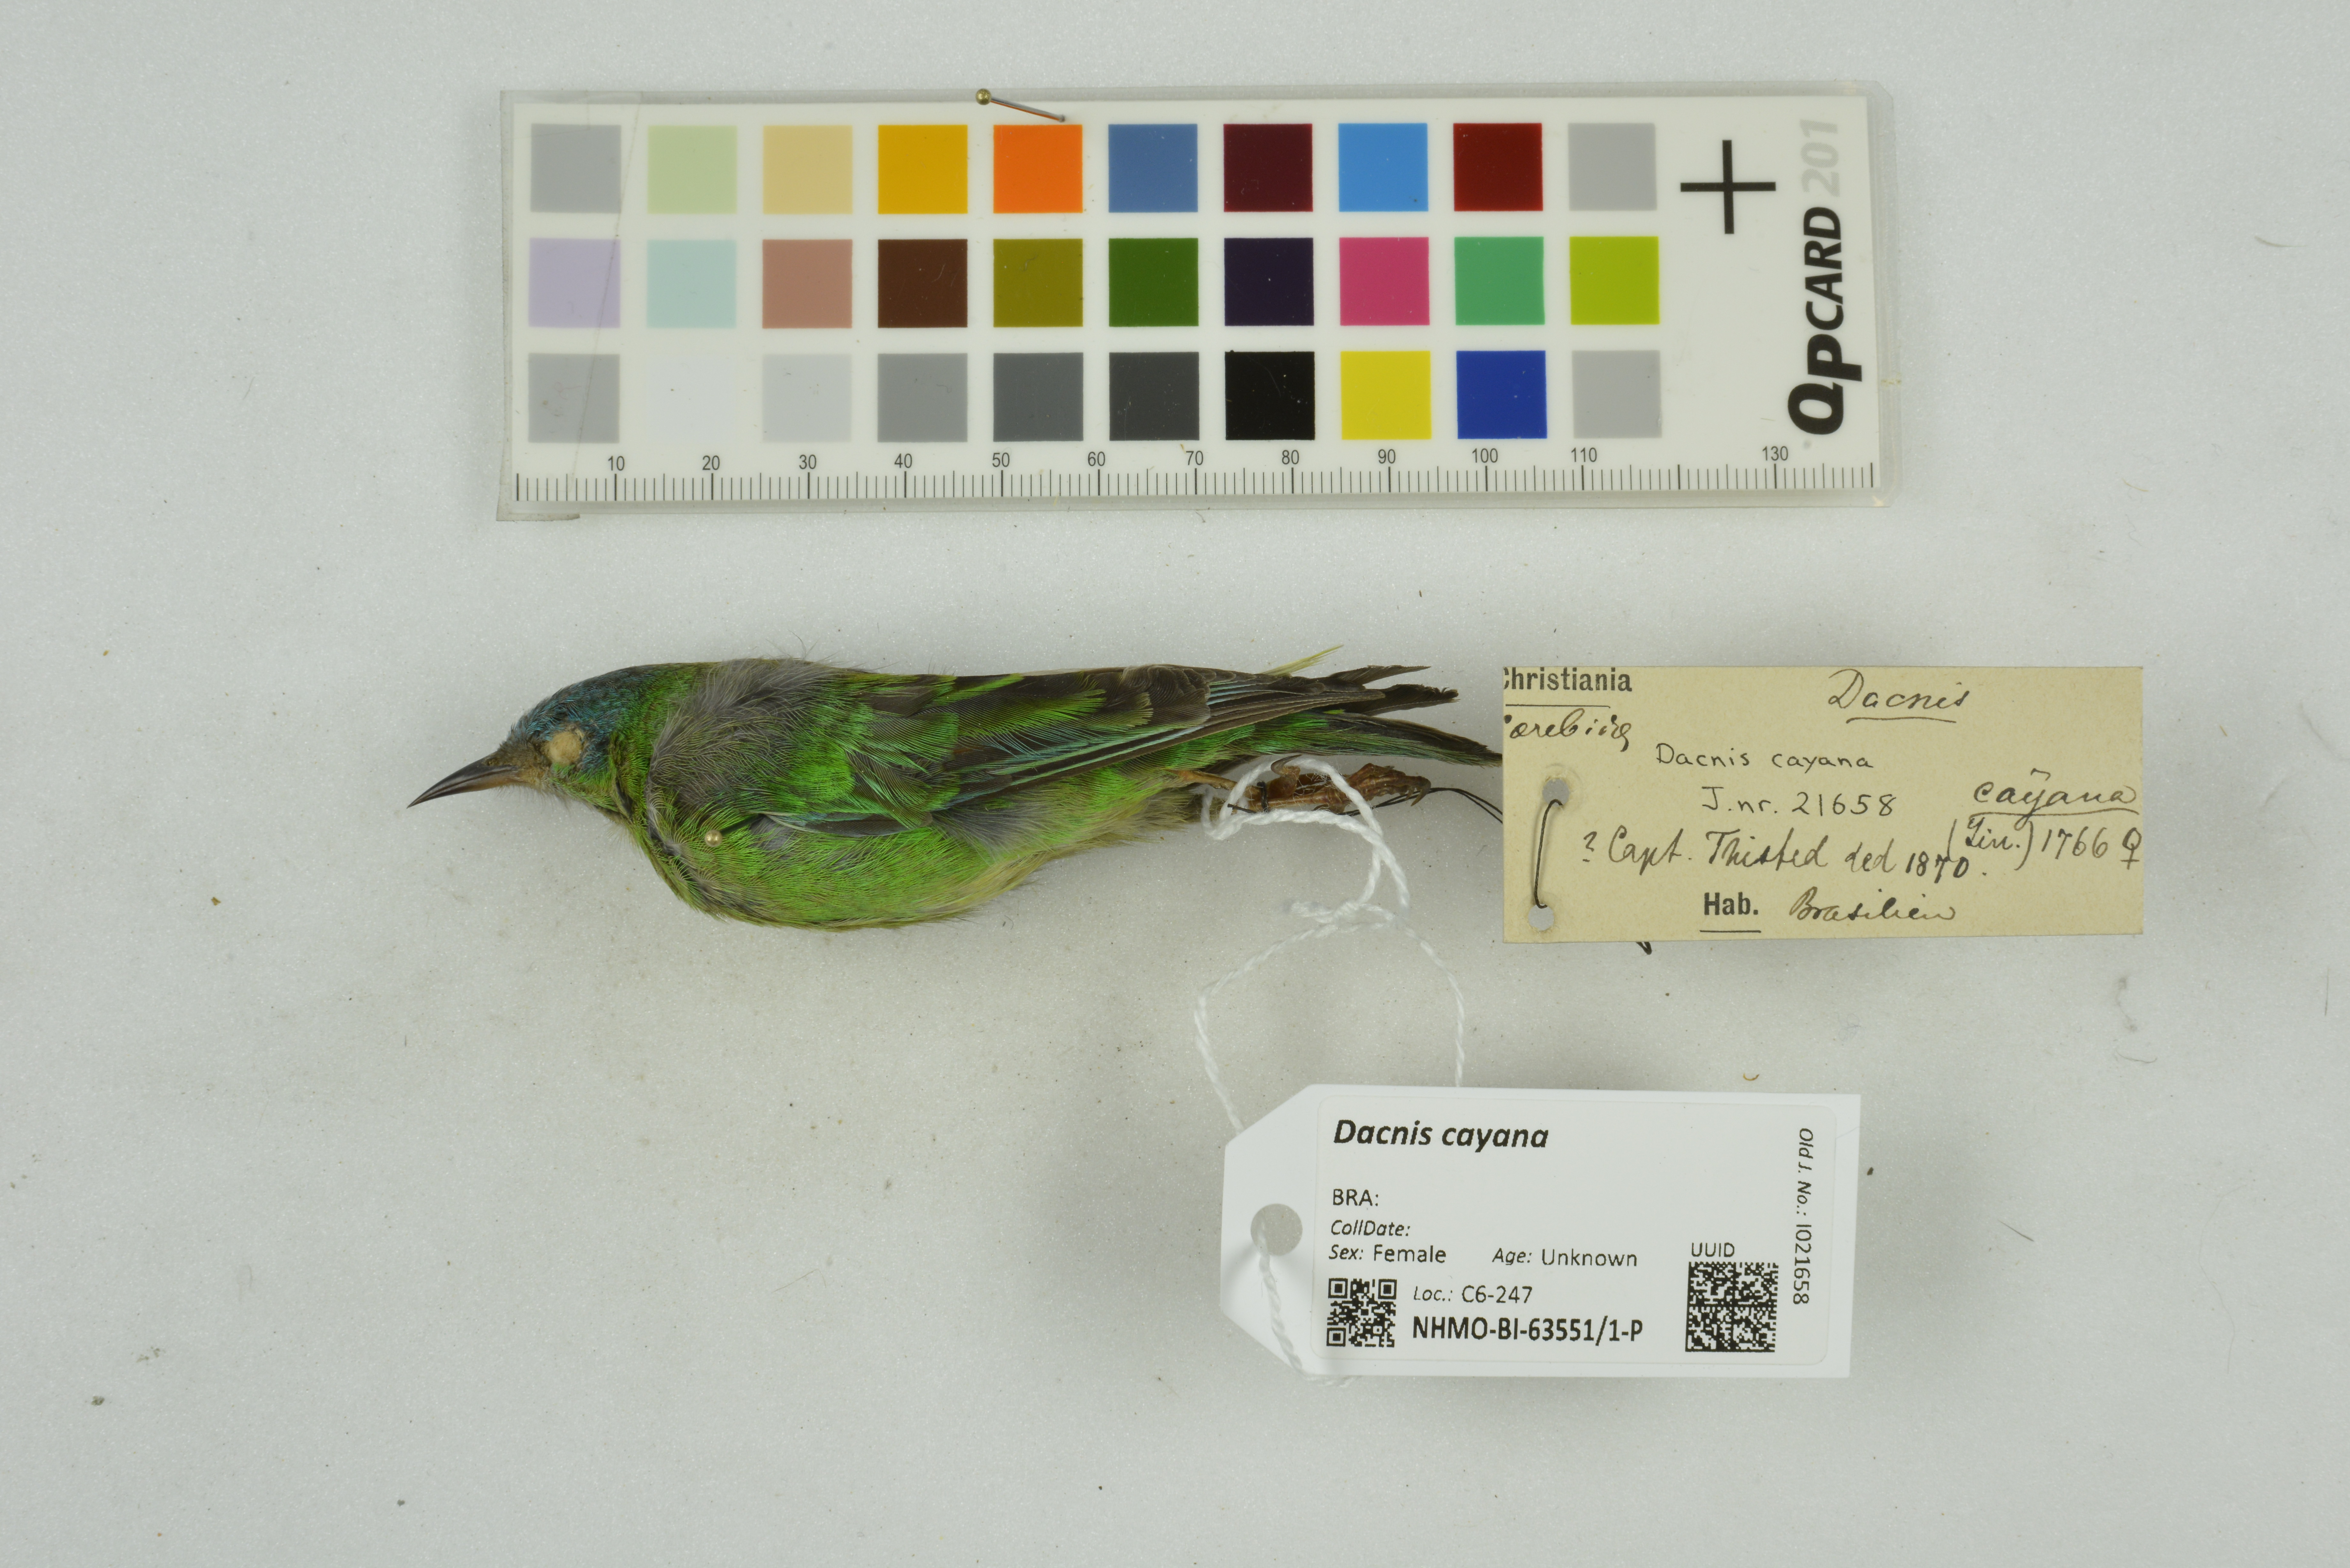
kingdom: Animalia
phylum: Chordata
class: Aves
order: Passeriformes
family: Thraupidae
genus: Dacnis
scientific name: Dacnis cayana
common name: Blue dacnis
